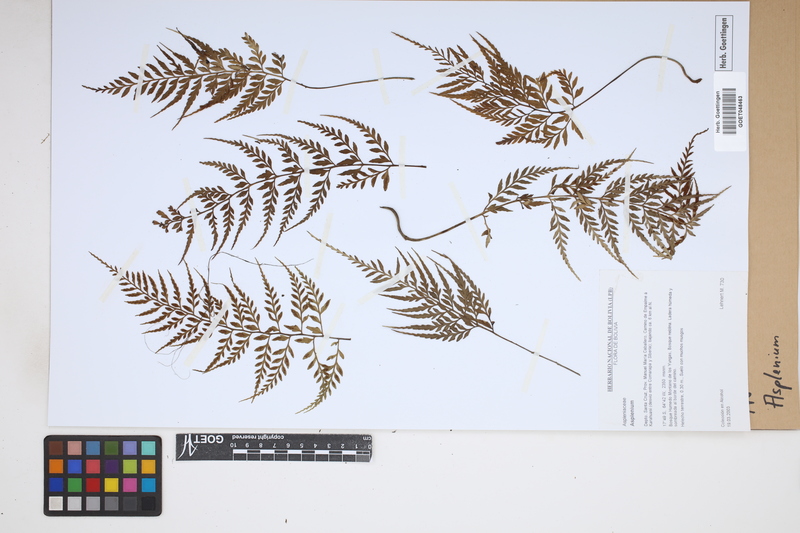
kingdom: Plantae
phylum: Tracheophyta
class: Polypodiopsida
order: Polypodiales
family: Aspleniaceae
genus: Asplenium
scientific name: Asplenium
